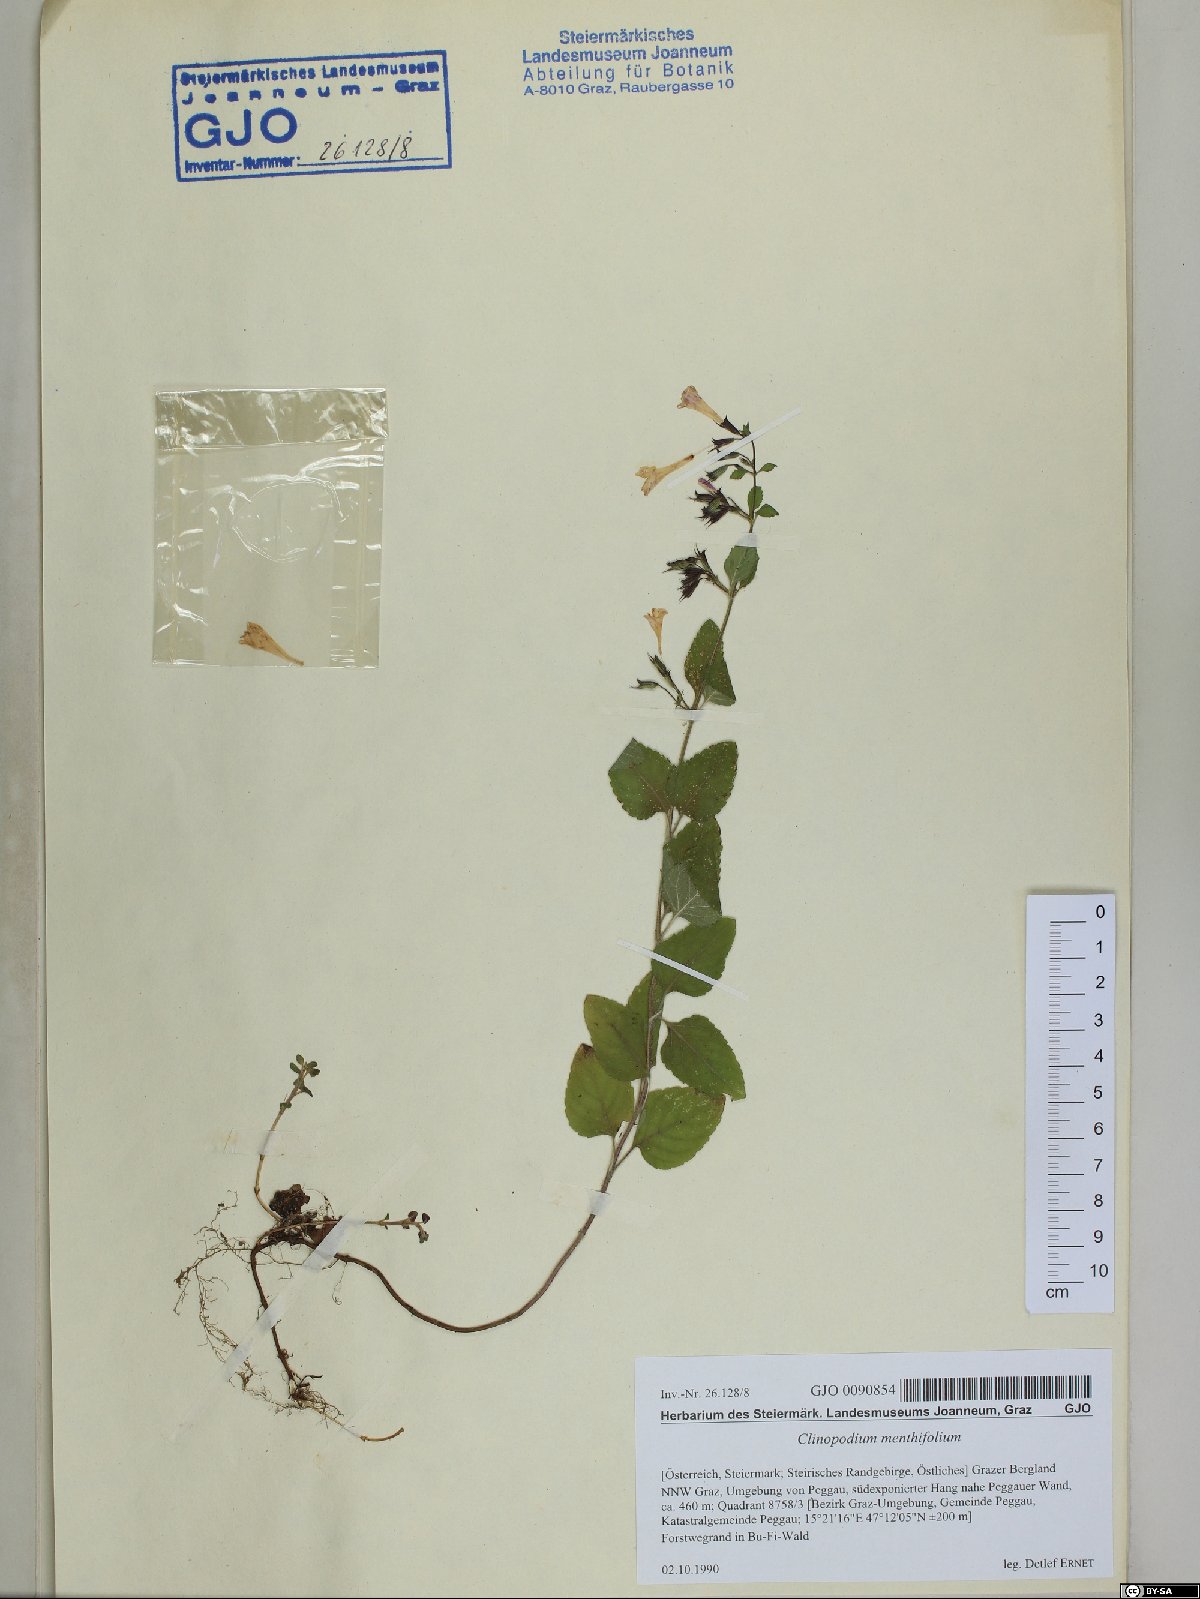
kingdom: Plantae
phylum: Tracheophyta
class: Magnoliopsida
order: Lamiales
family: Lamiaceae
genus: Clinopodium
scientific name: Clinopodium menthifolium
